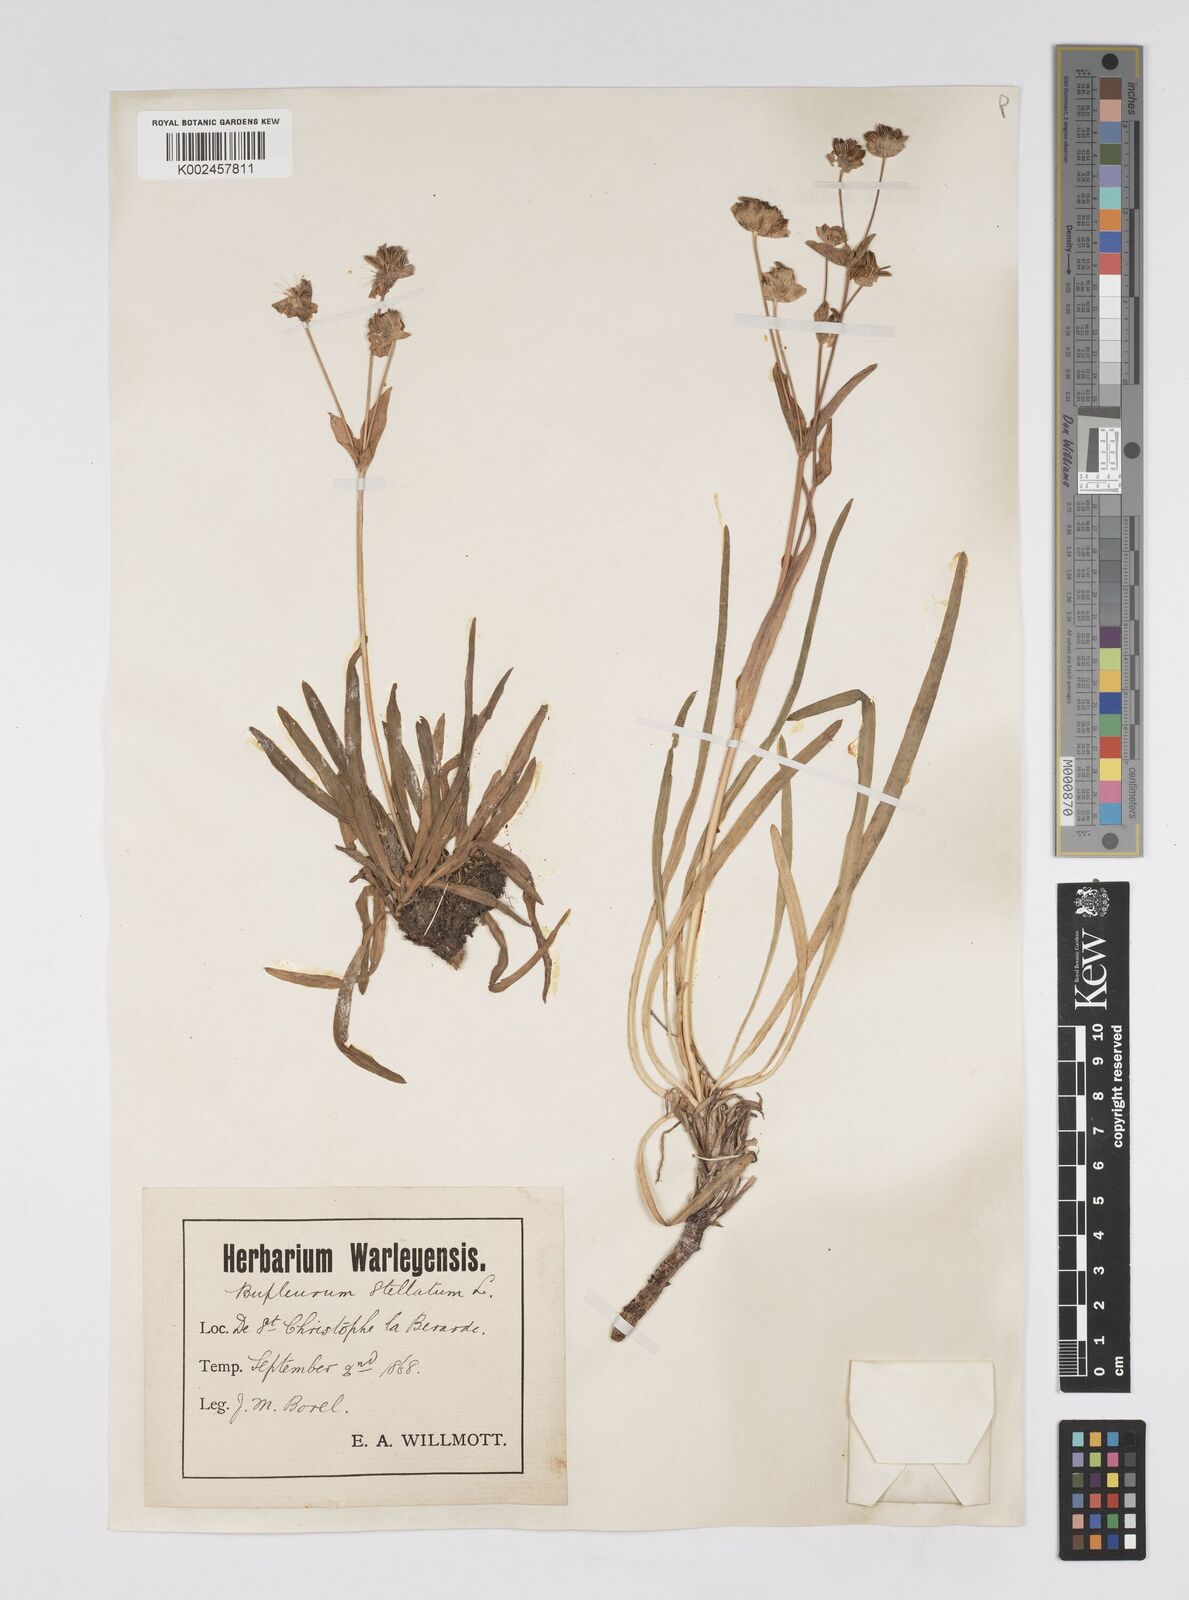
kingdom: Plantae
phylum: Tracheophyta
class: Magnoliopsida
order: Apiales
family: Apiaceae
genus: Bupleurum
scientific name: Bupleurum stellatum
